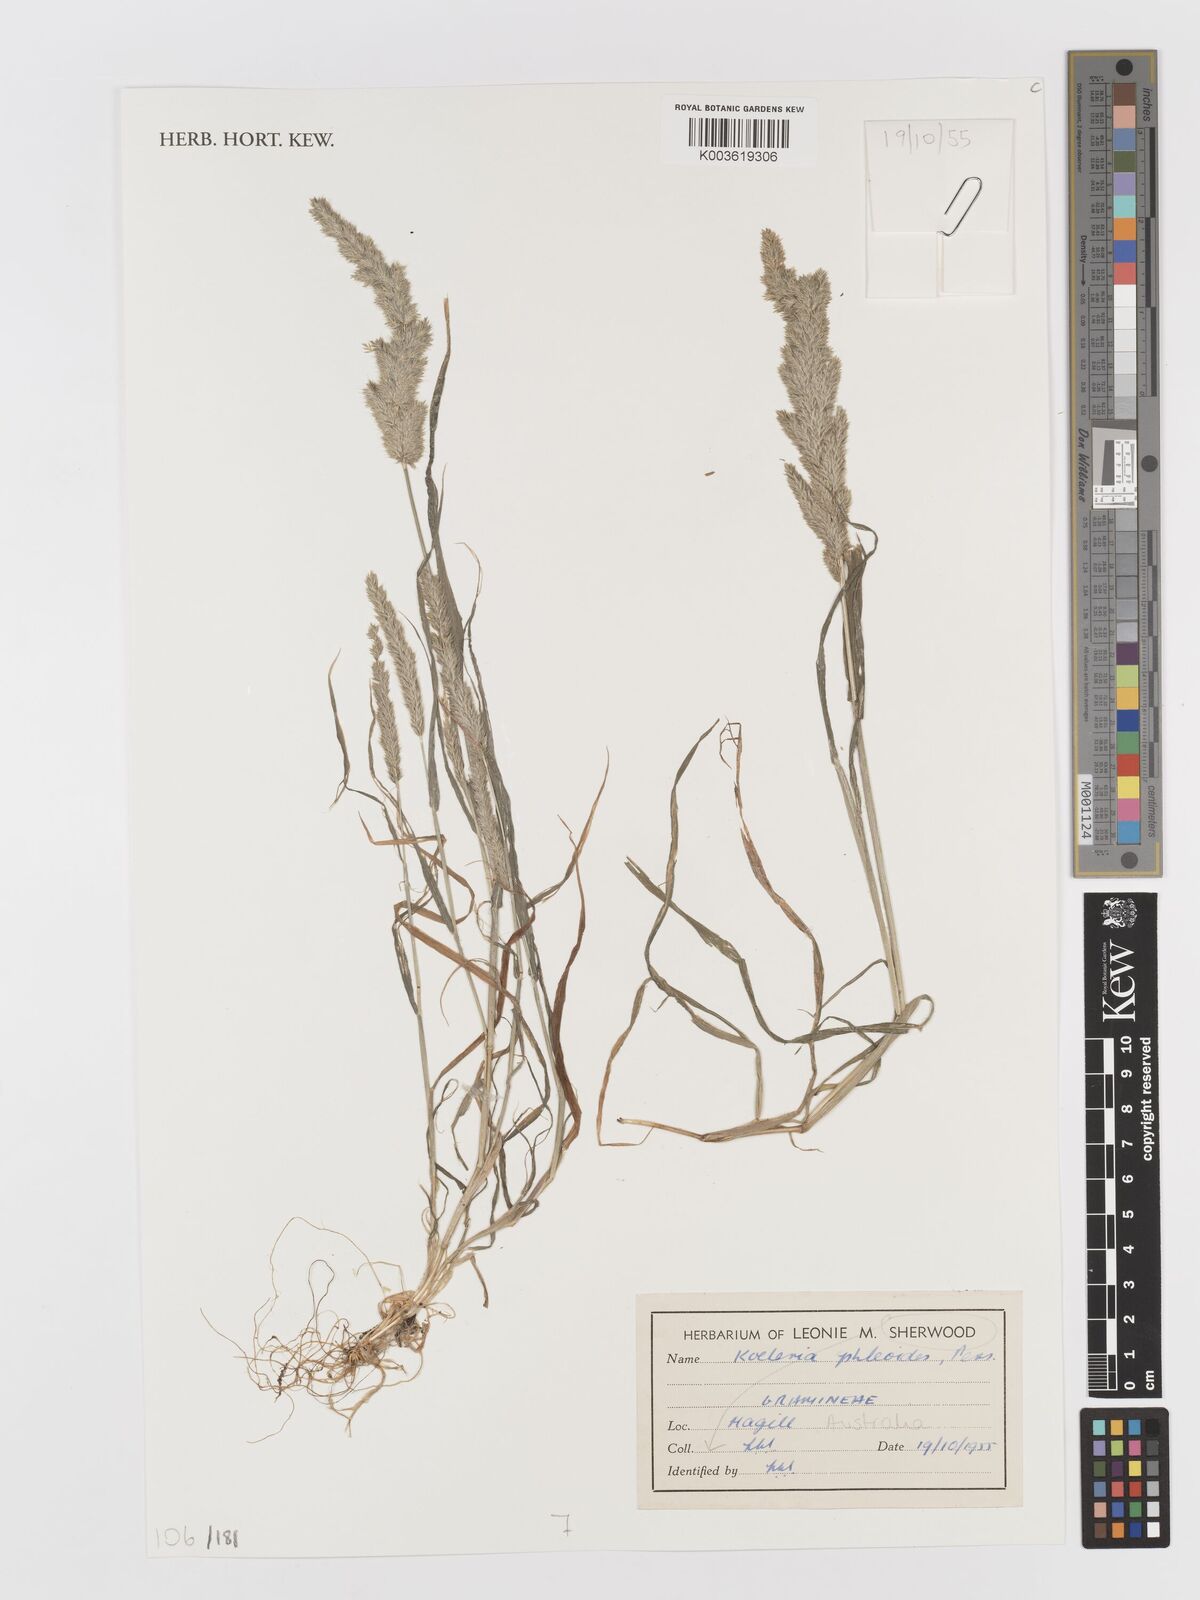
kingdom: Plantae
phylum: Tracheophyta
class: Liliopsida
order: Poales
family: Poaceae
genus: Rostraria
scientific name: Rostraria cristata
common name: Mediterranean hair-grass
